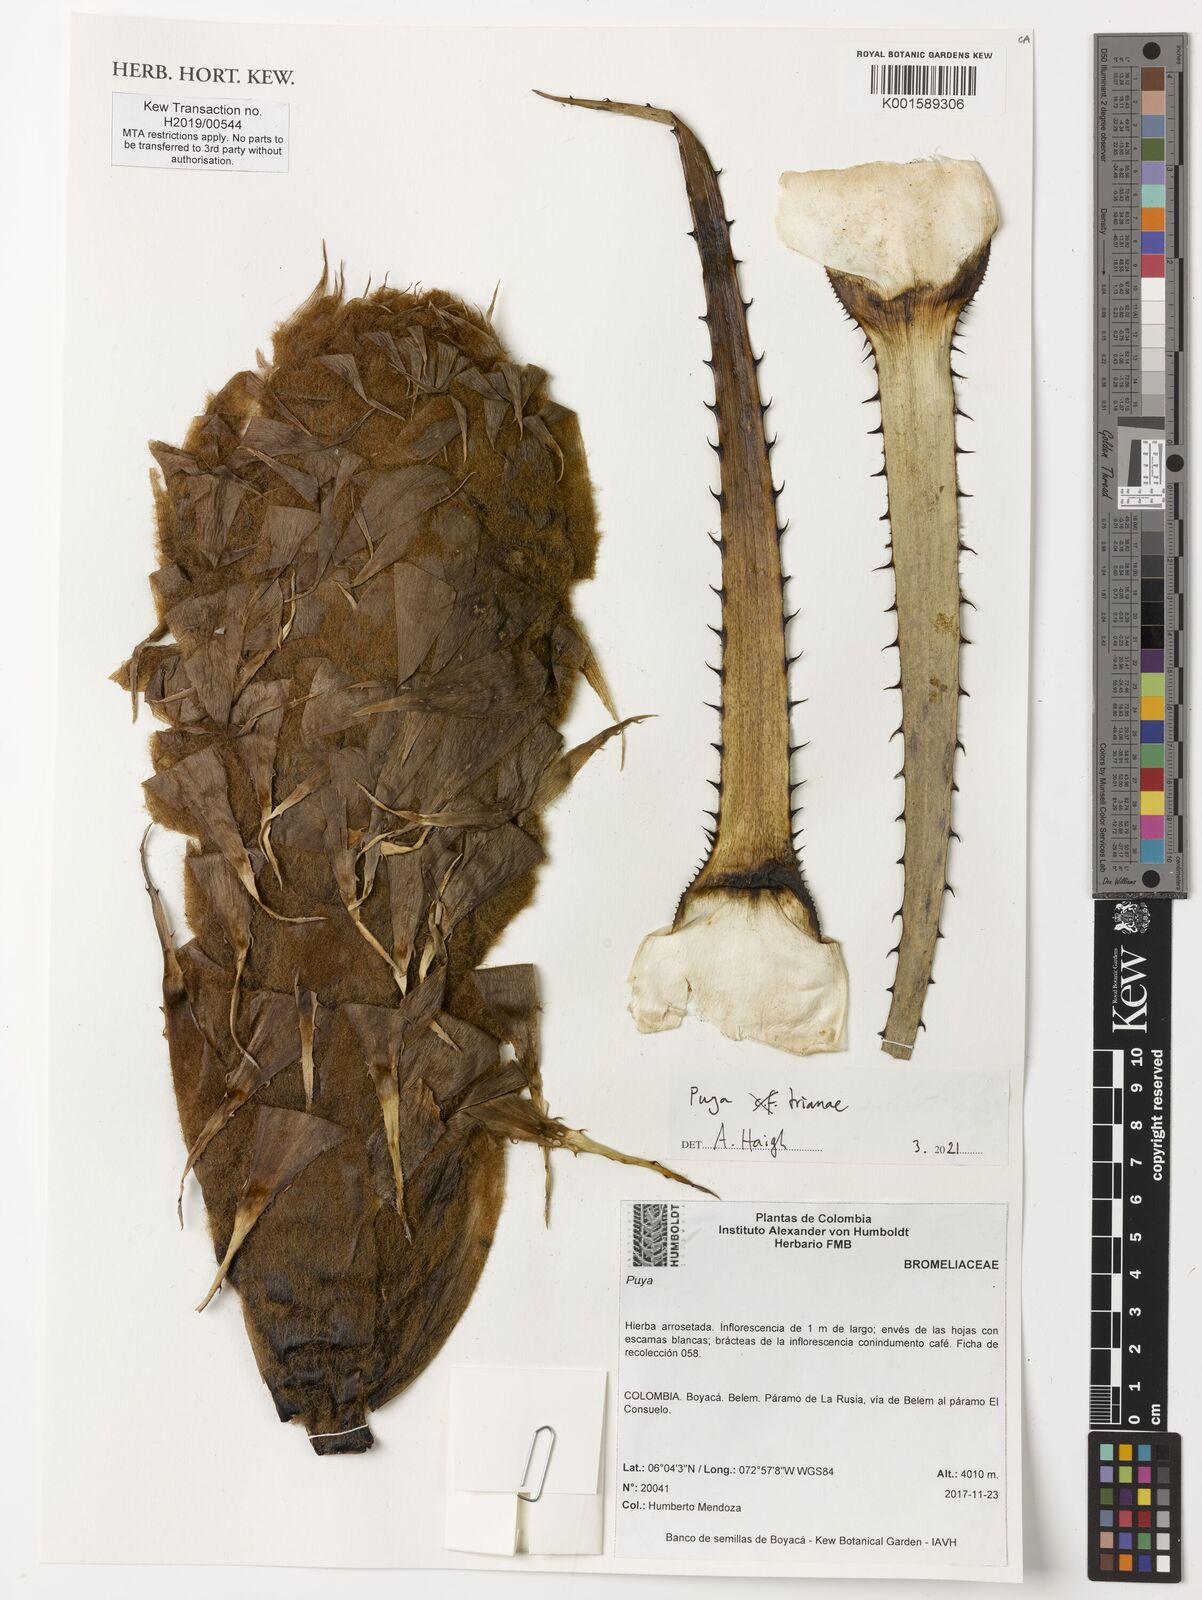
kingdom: Plantae
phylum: Tracheophyta
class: Liliopsida
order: Poales
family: Bromeliaceae
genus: Puya
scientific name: Puya
